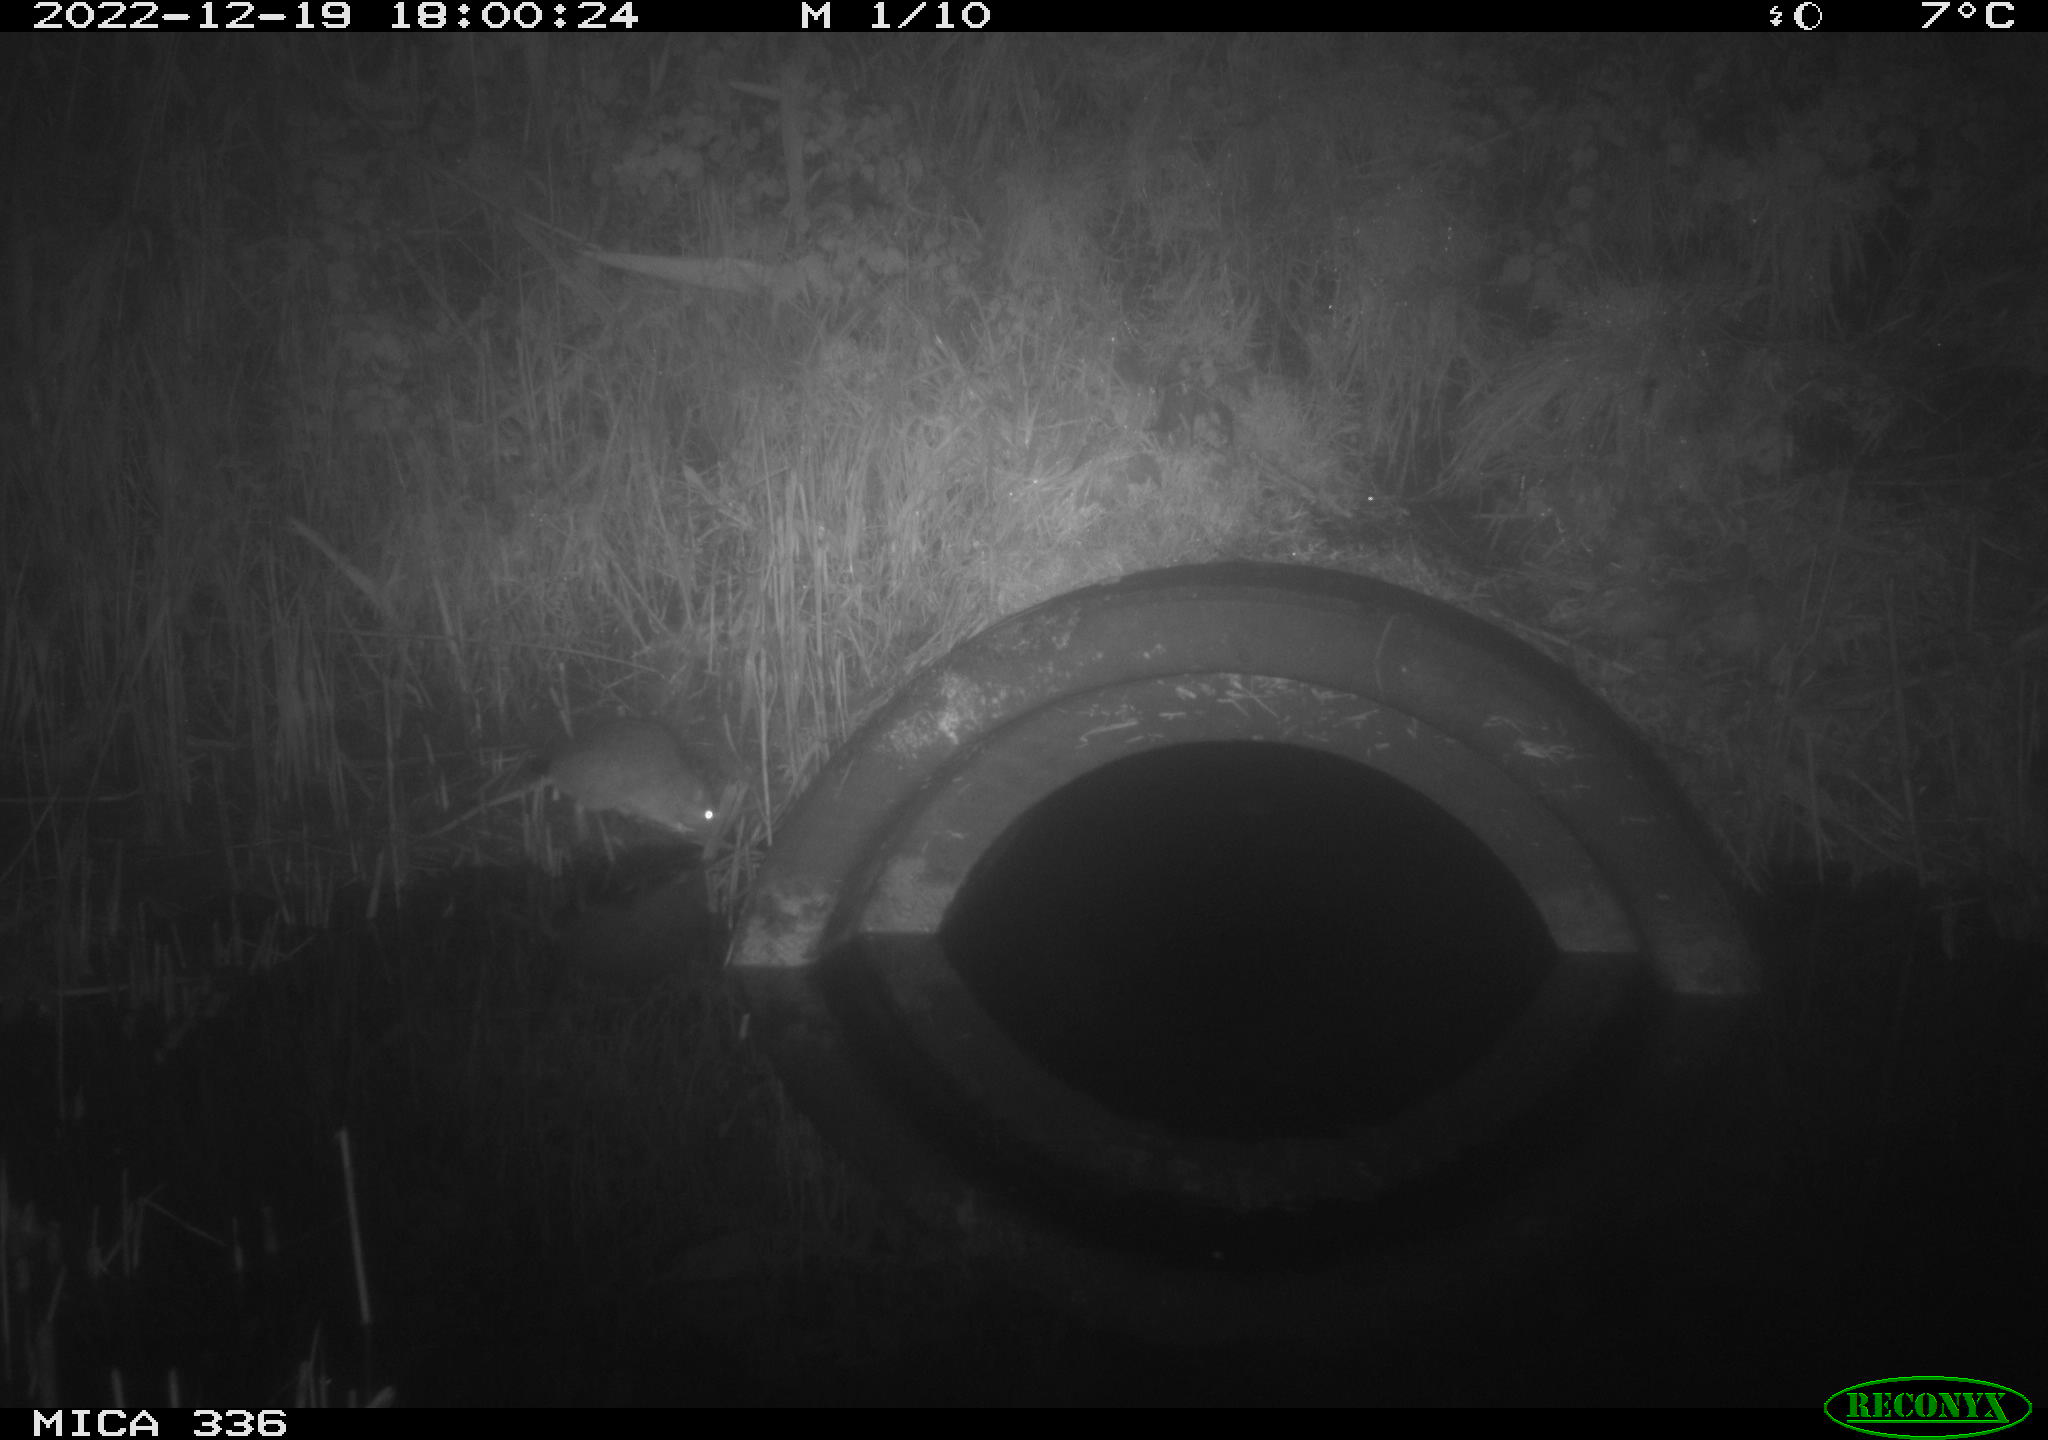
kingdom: Animalia
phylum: Chordata
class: Mammalia
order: Rodentia
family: Muridae
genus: Rattus
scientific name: Rattus norvegicus
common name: Brown rat
